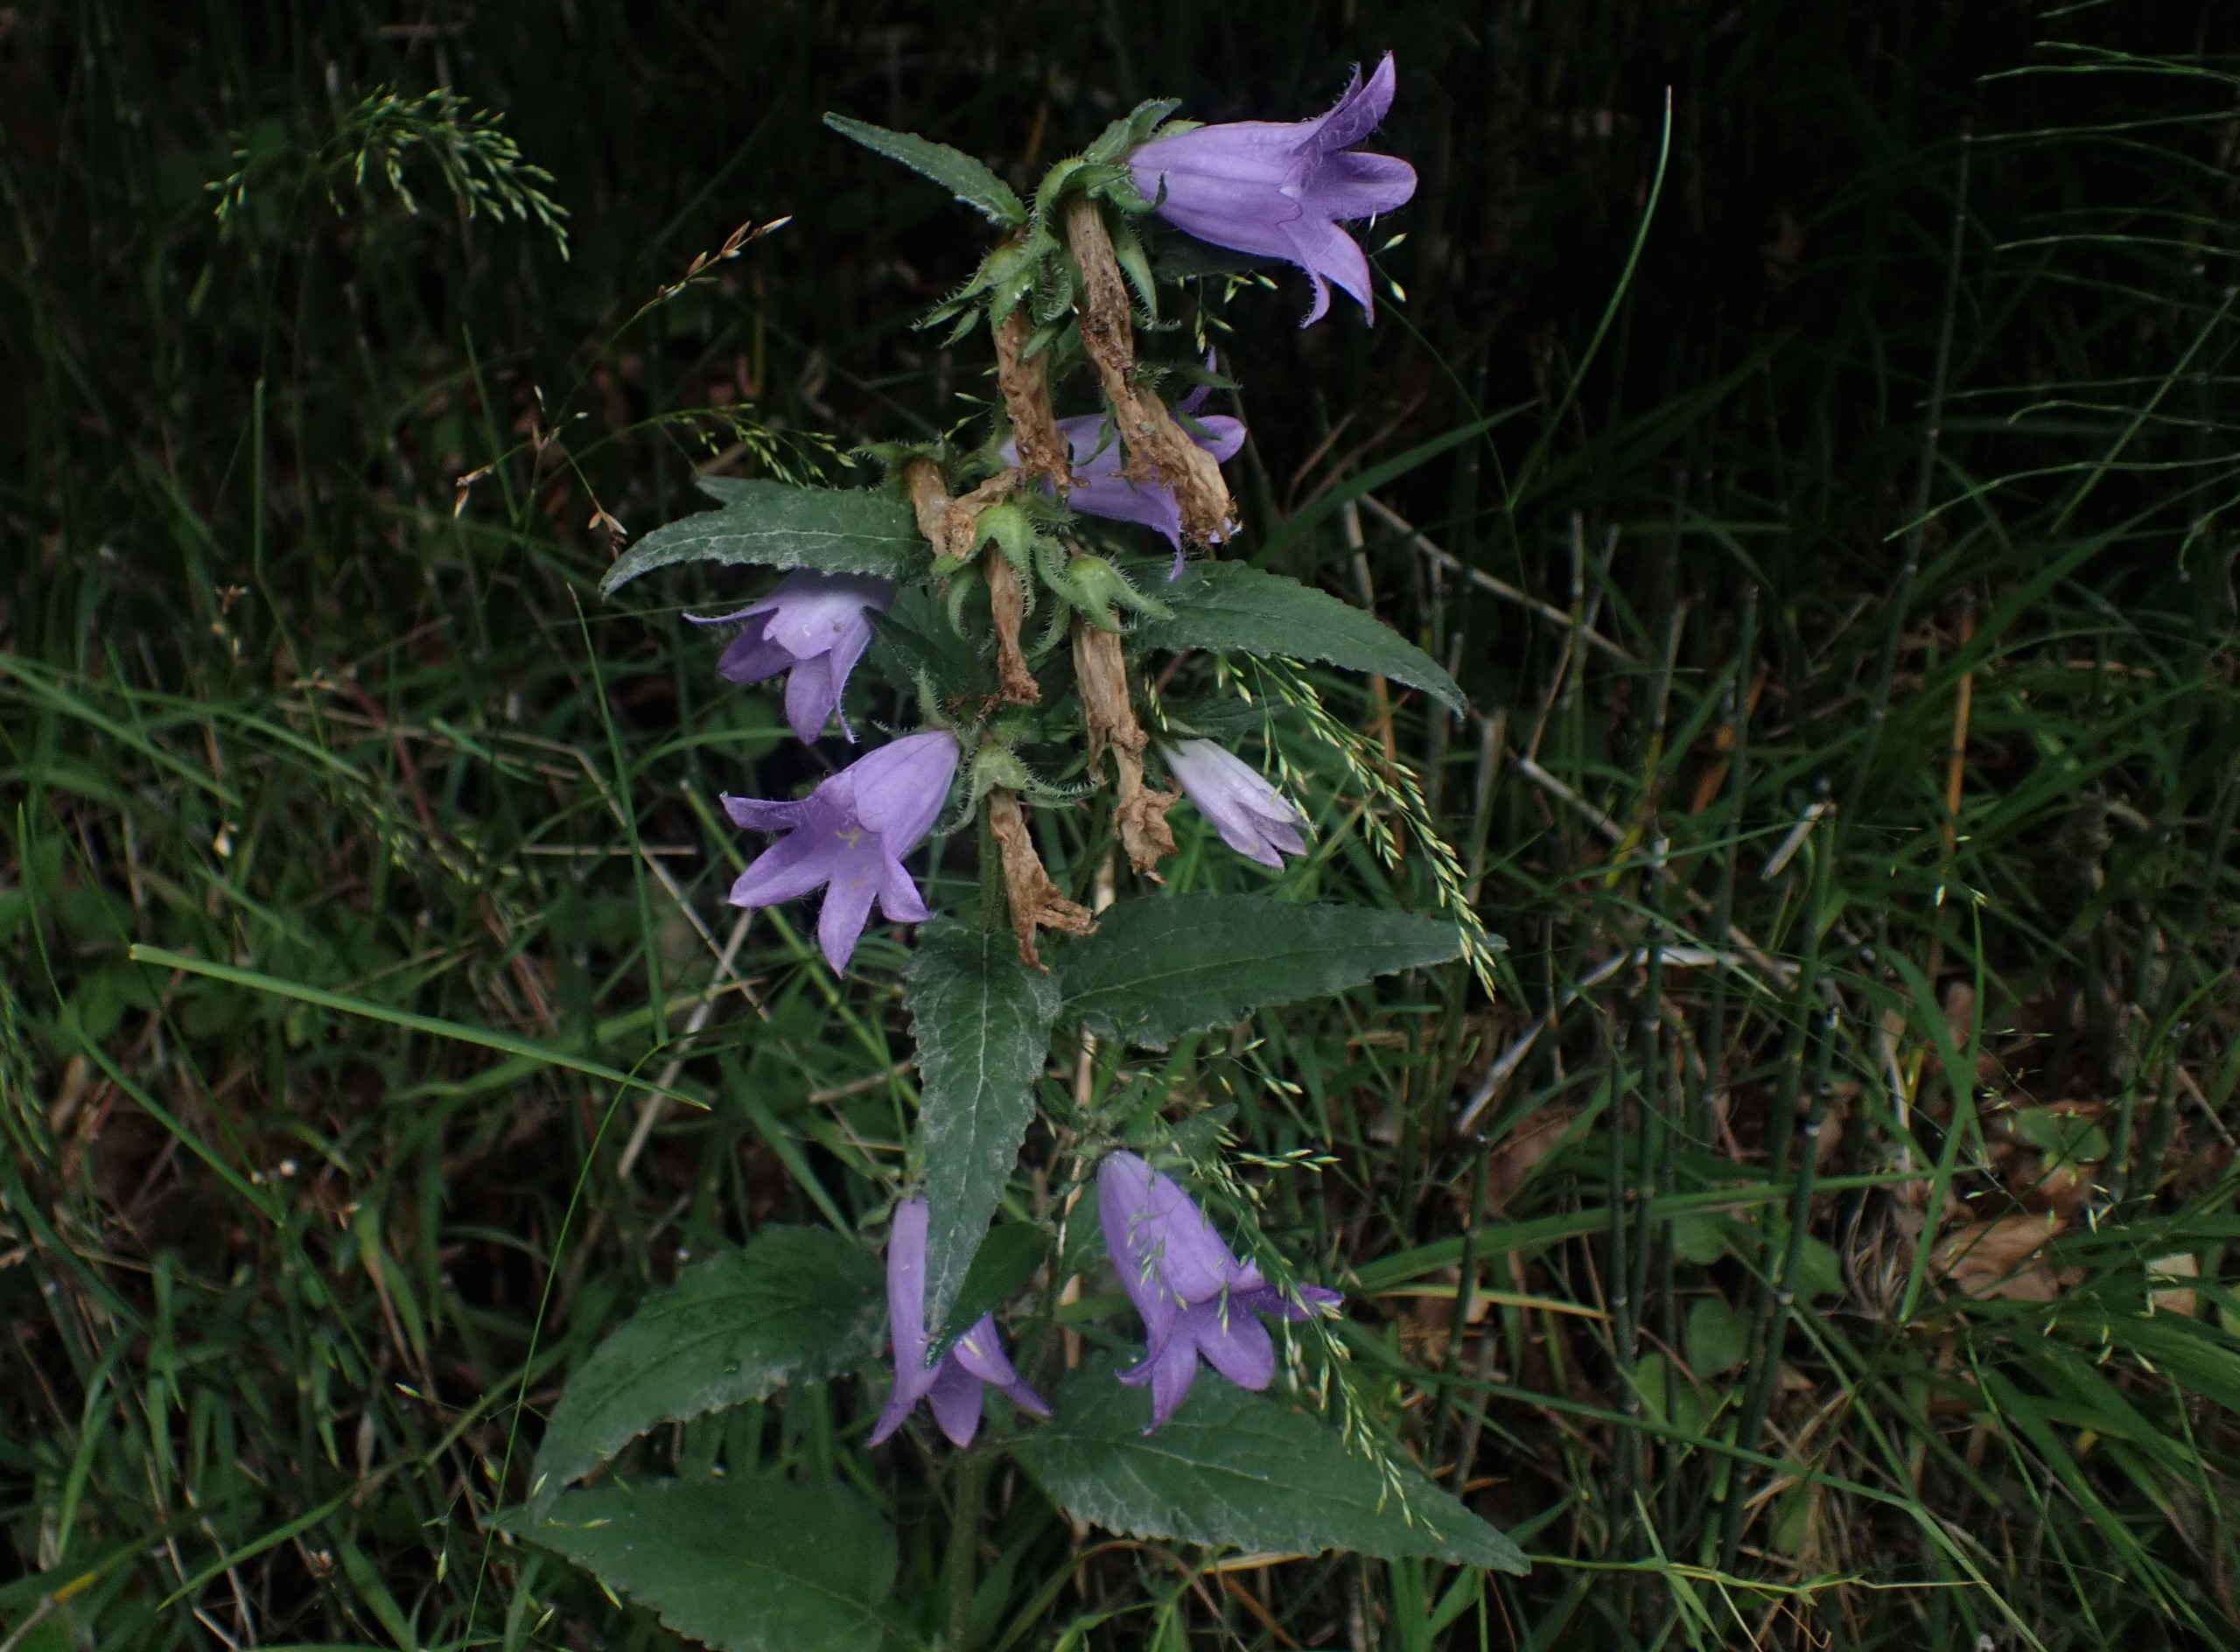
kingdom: Plantae
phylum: Tracheophyta
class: Magnoliopsida
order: Asterales
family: Campanulaceae
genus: Campanula
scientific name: Campanula trachelium
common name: Nælde-klokke
